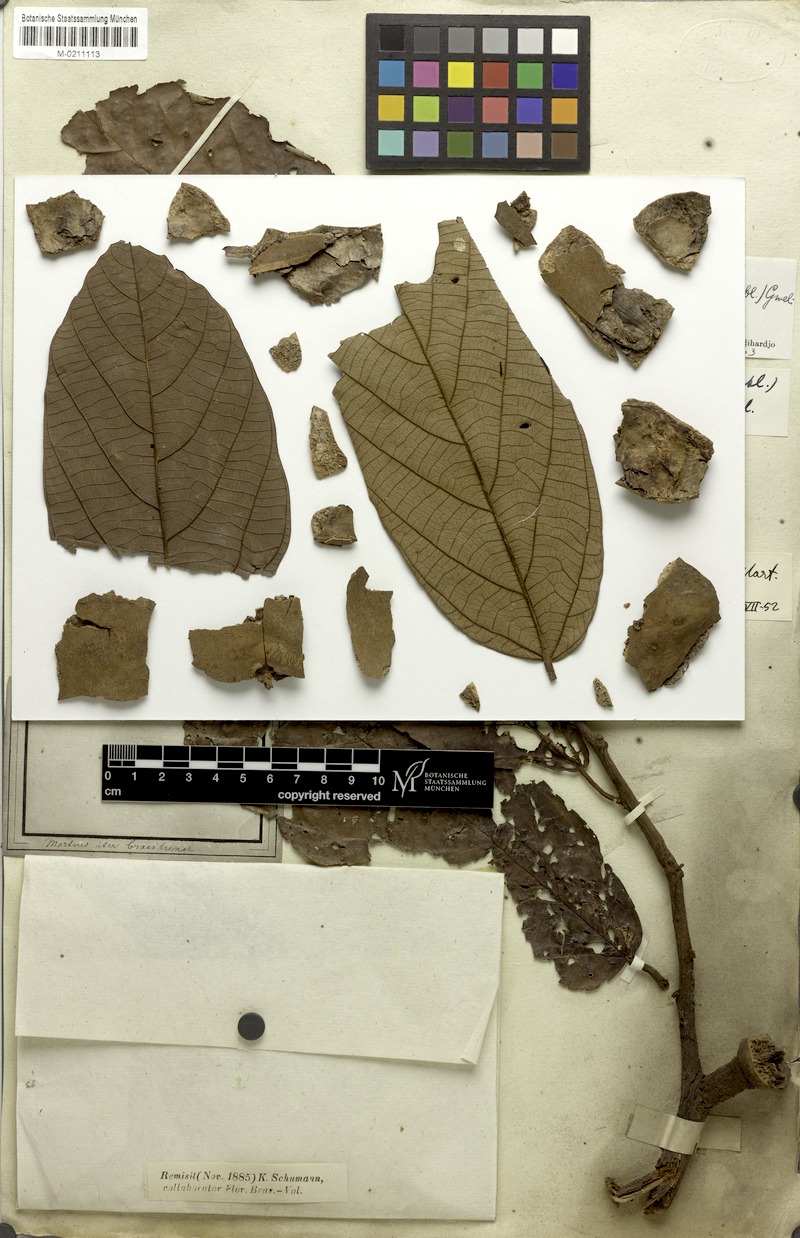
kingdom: Plantae
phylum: Tracheophyta
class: Magnoliopsida
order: Malvales
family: Malvaceae
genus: Theobroma
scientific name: Theobroma subincanum
